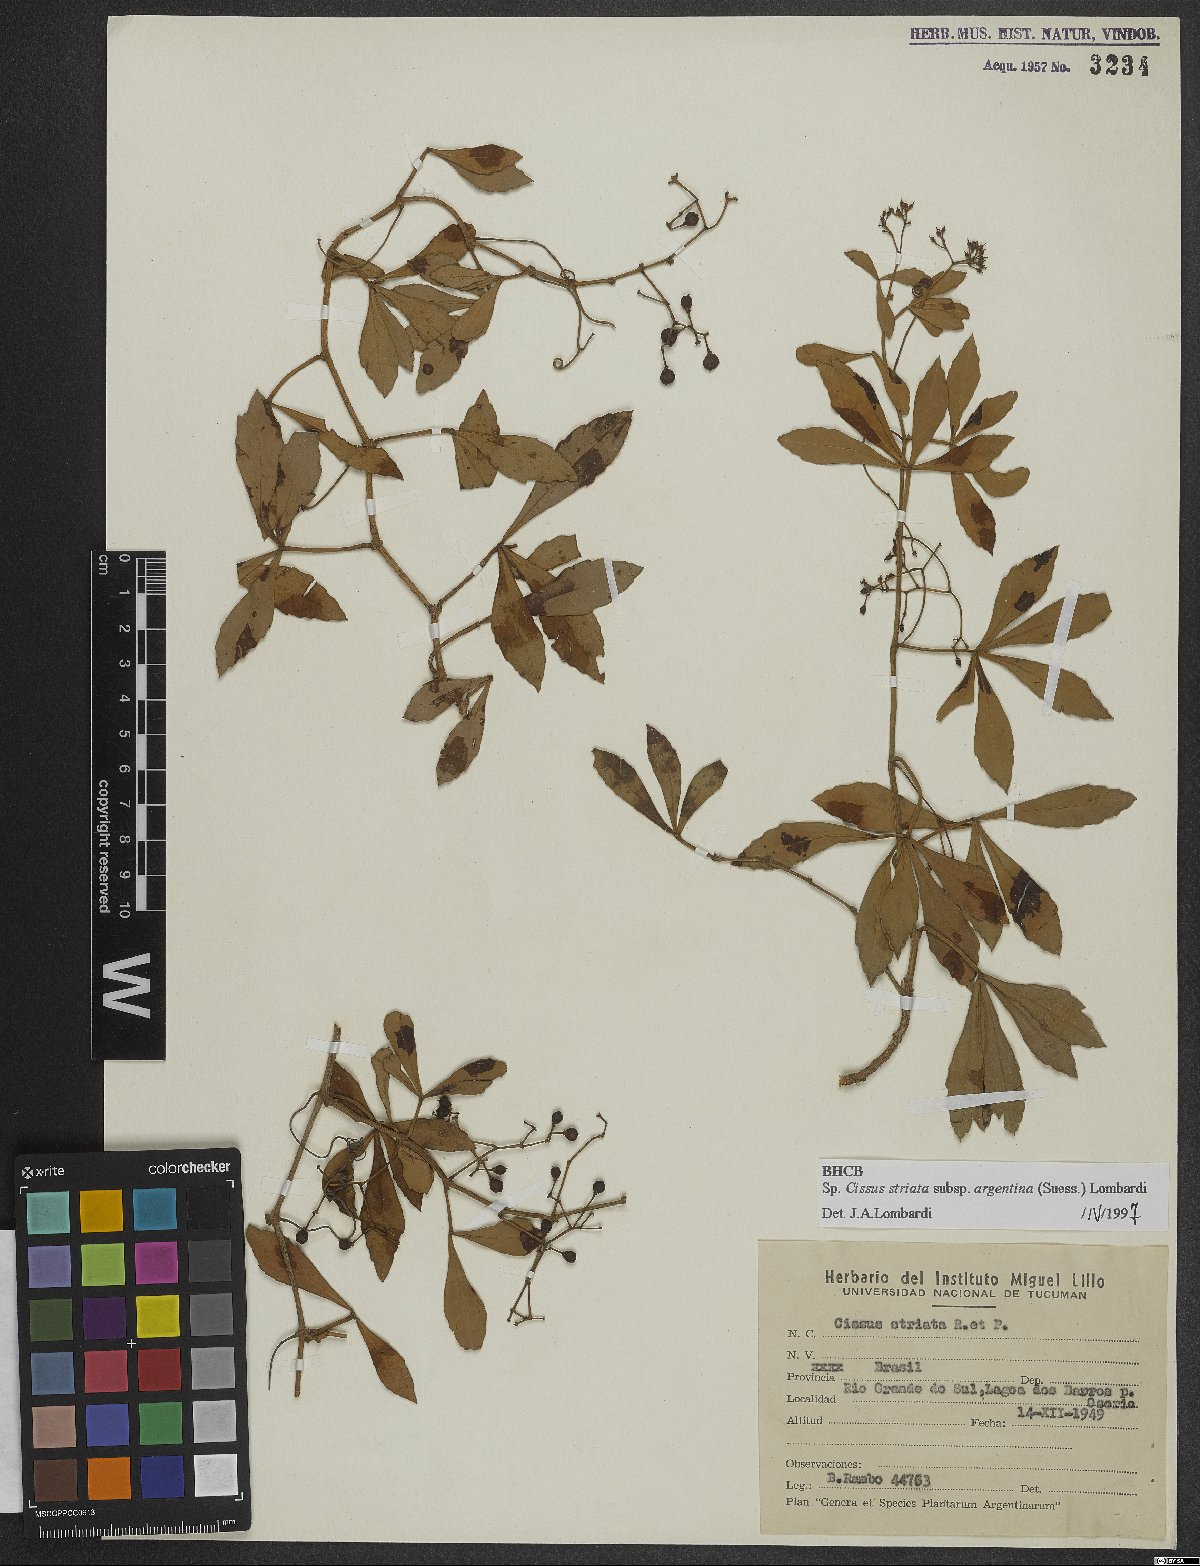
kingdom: Plantae
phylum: Tracheophyta
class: Magnoliopsida
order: Vitales
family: Vitaceae
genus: Clematicissus
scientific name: Clematicissus striata
